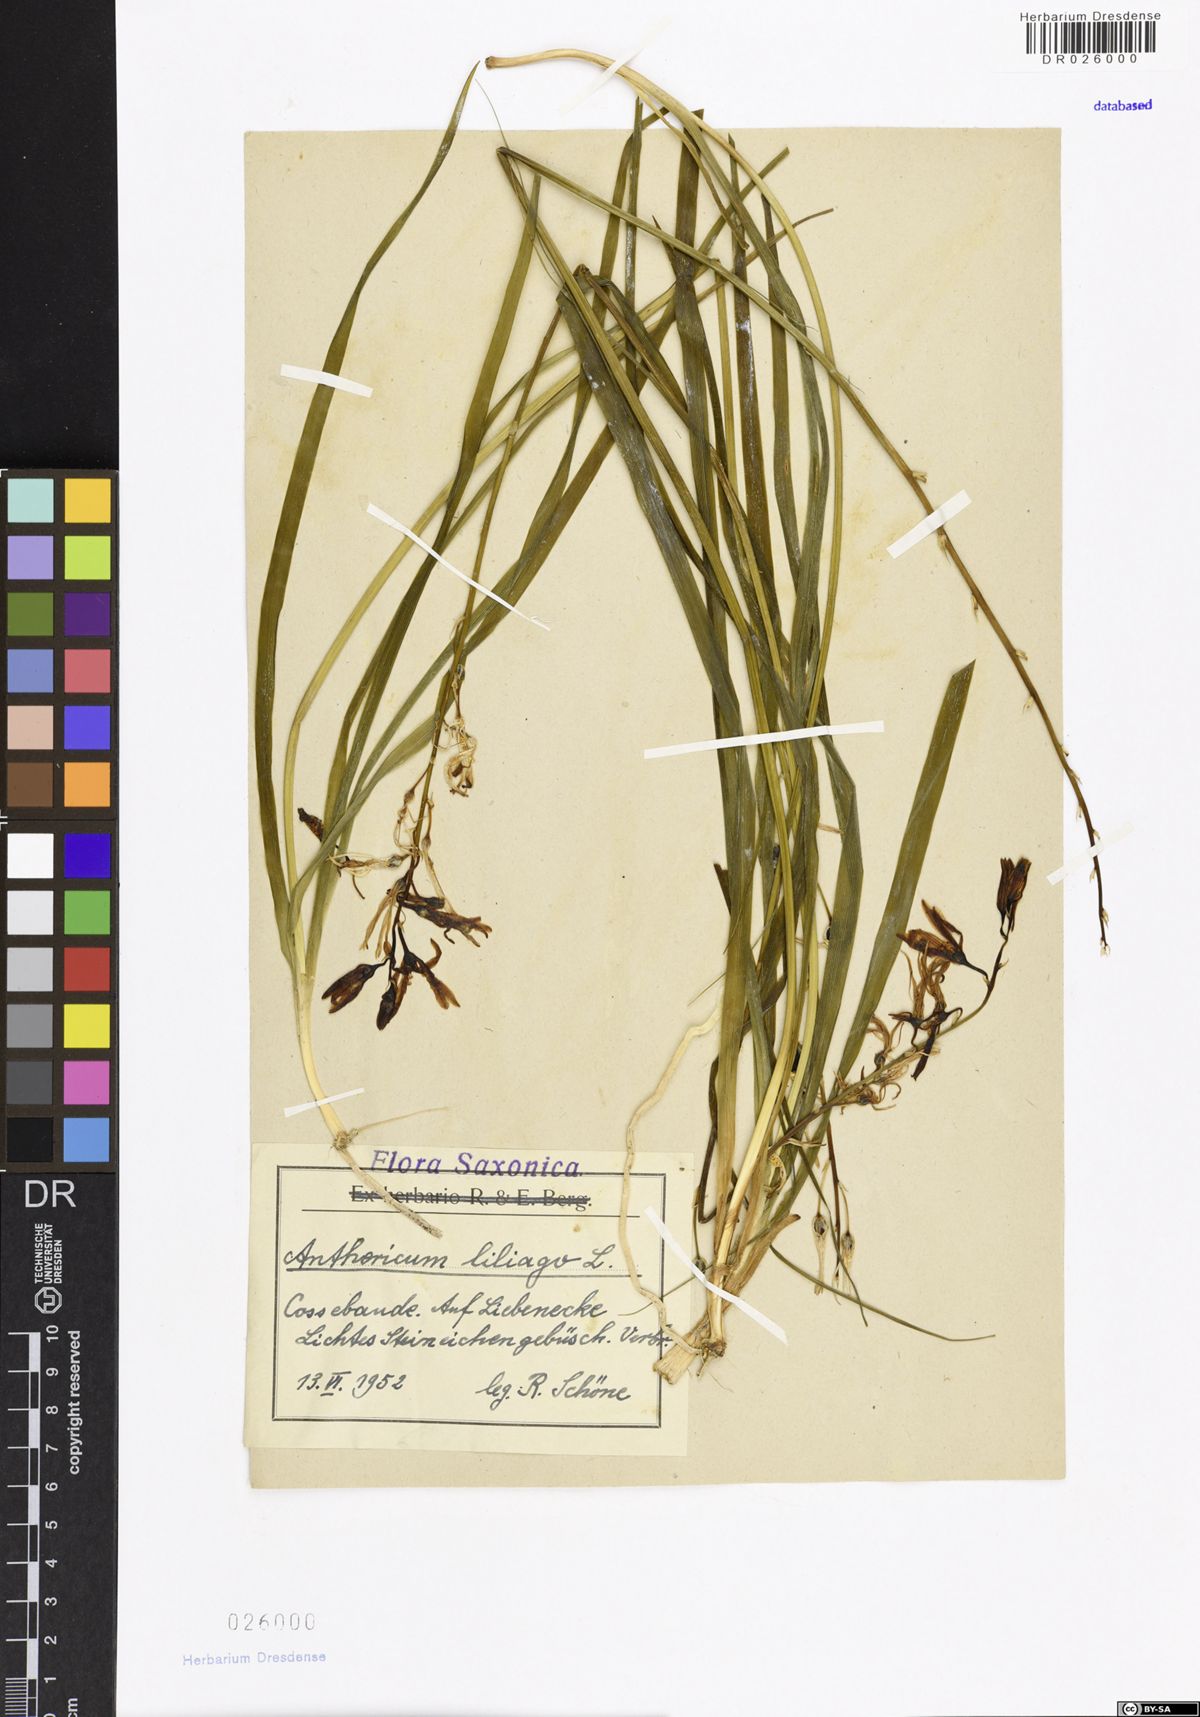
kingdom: Plantae
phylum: Tracheophyta
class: Liliopsida
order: Asparagales
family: Asparagaceae
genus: Anthericum
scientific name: Anthericum liliago
